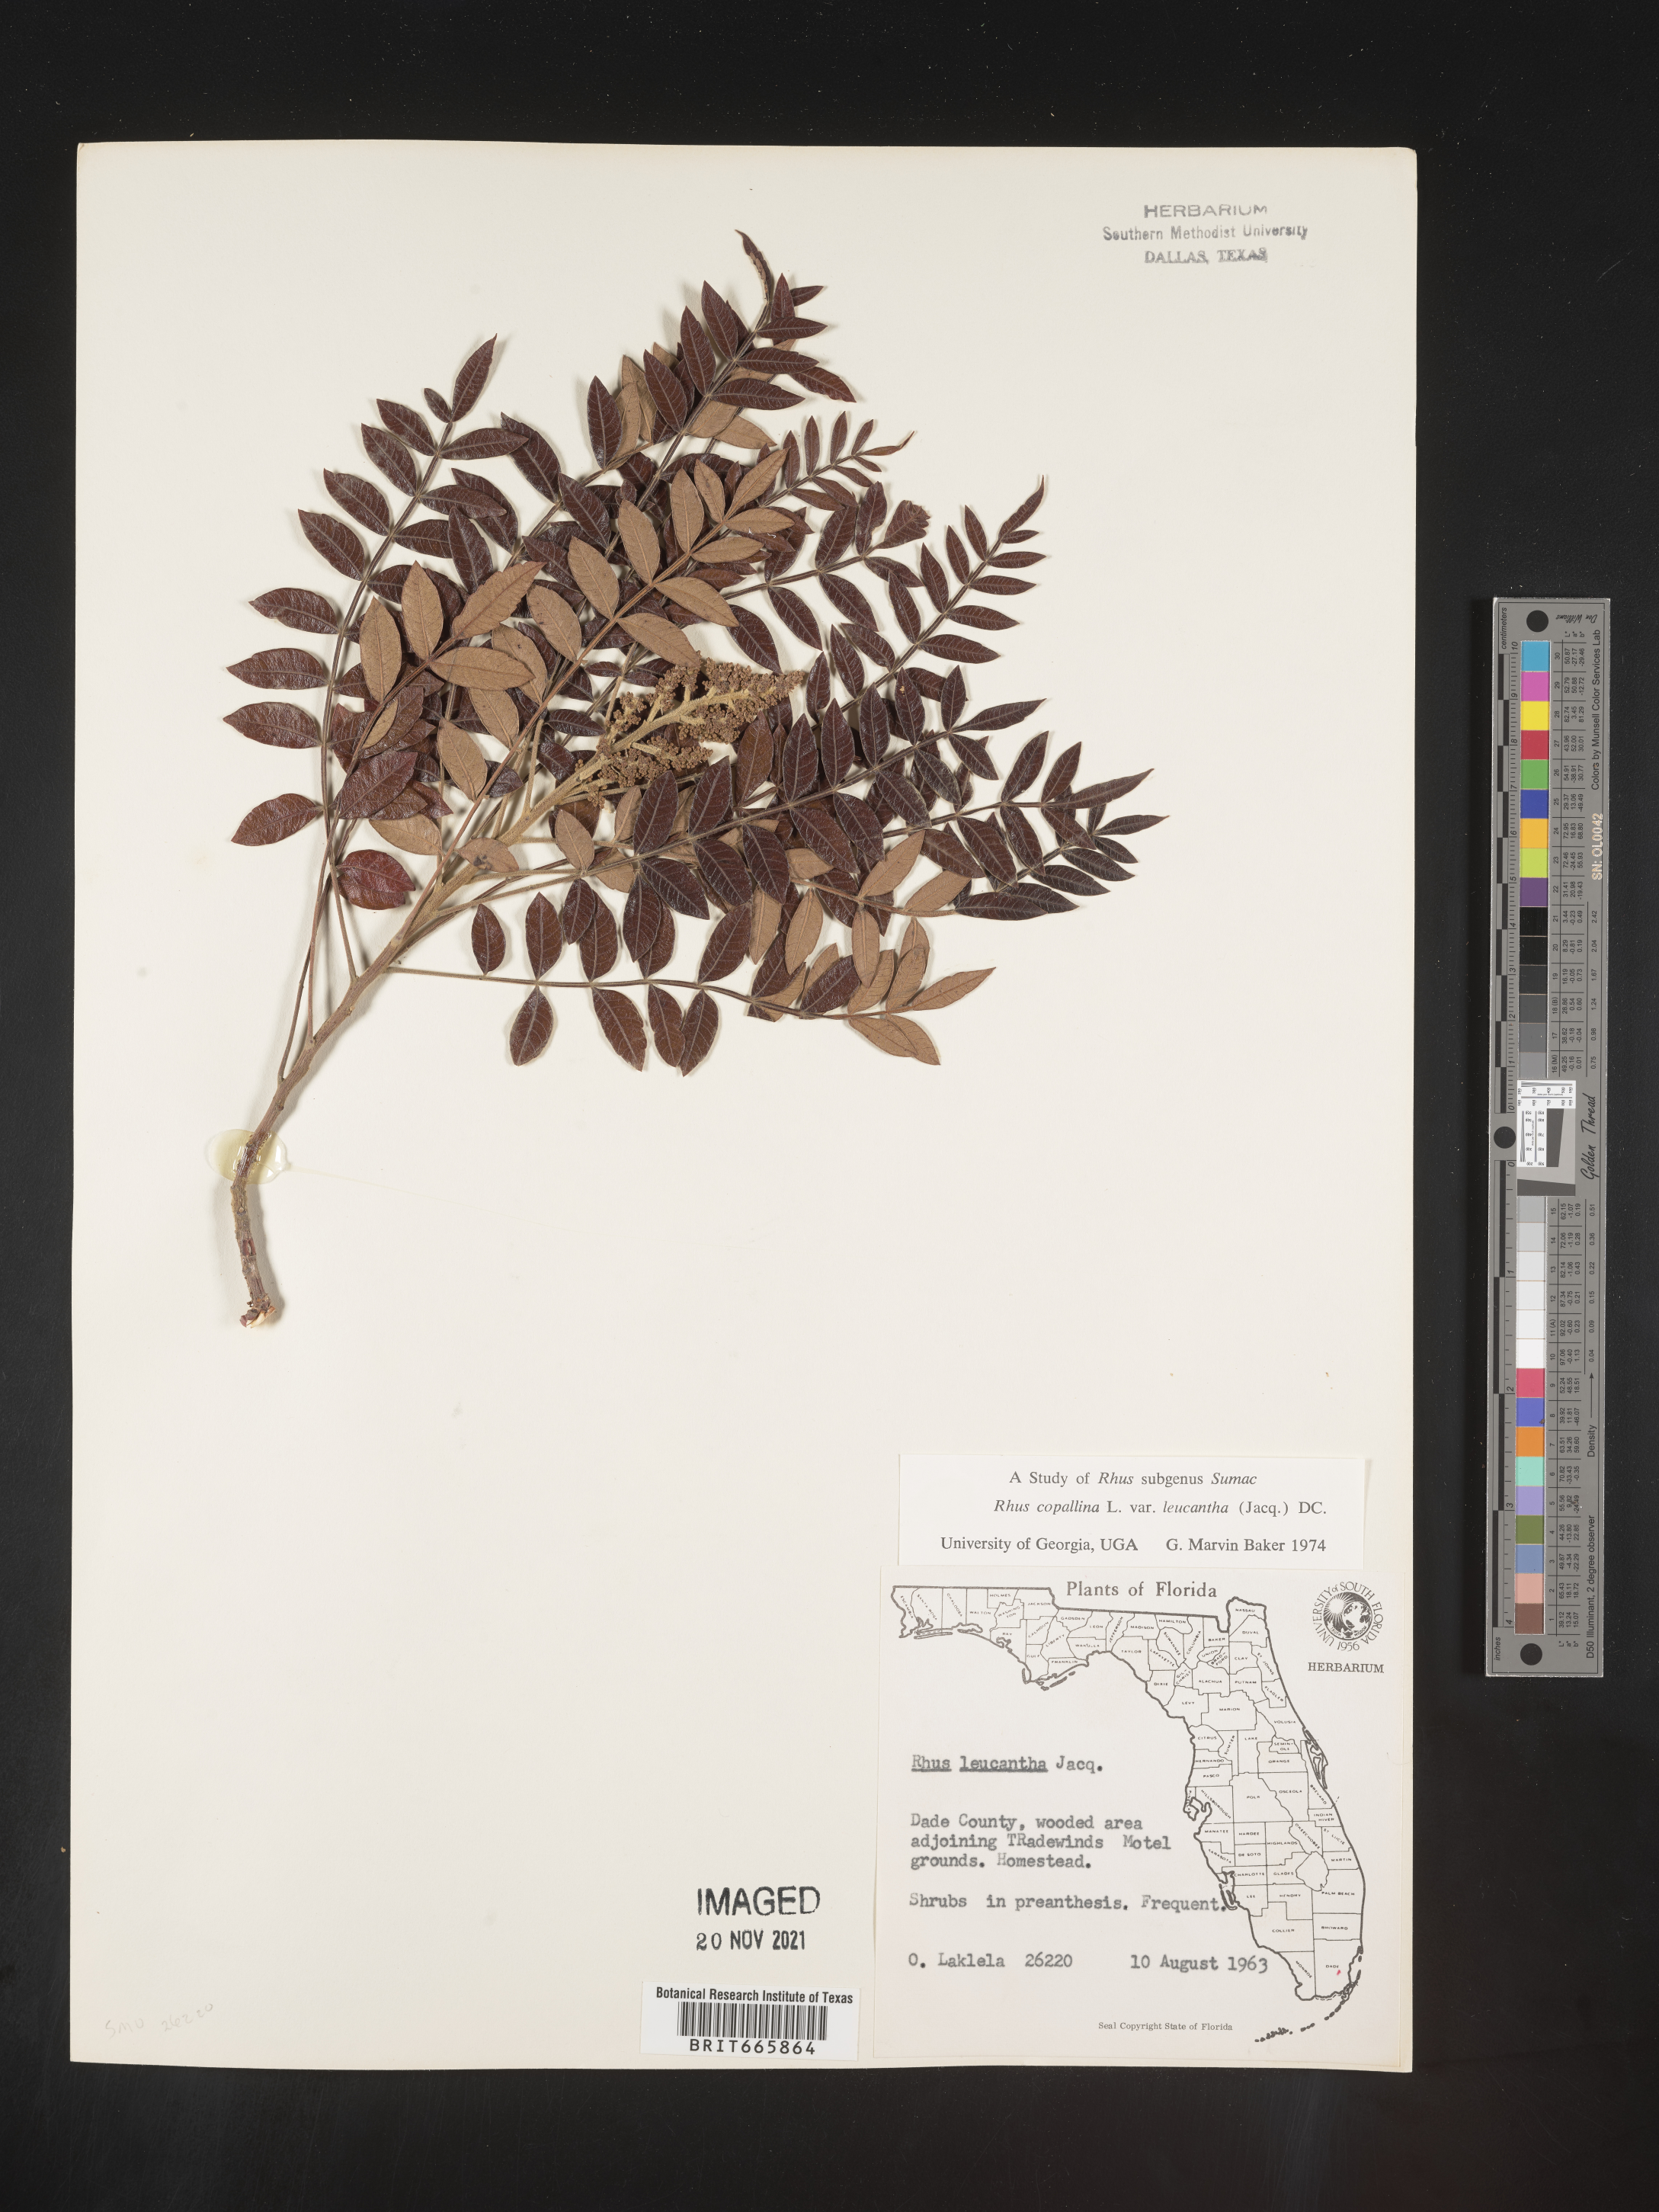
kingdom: Plantae
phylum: Tracheophyta
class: Magnoliopsida
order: Sapindales
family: Anacardiaceae
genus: Rhus
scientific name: Rhus copallina
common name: Shining sumac
